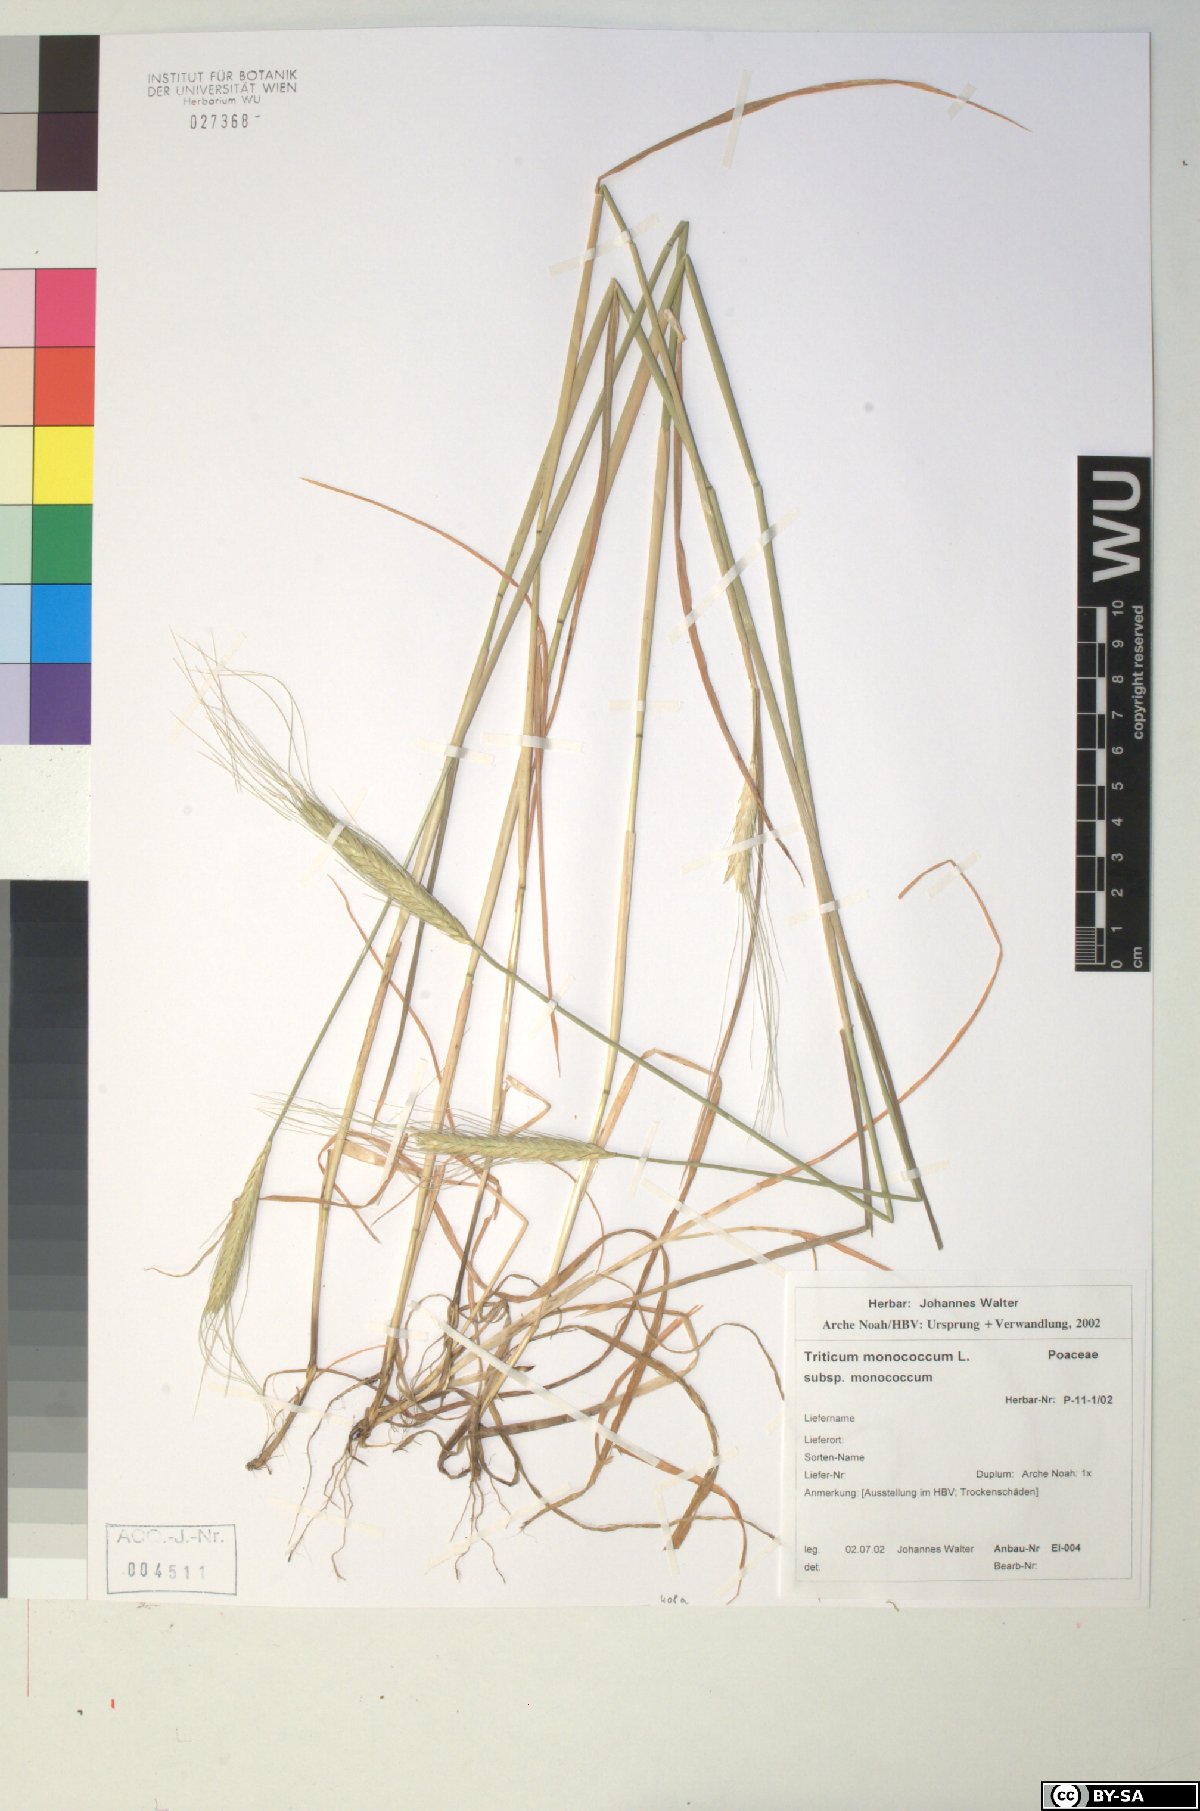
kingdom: Plantae
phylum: Tracheophyta
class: Liliopsida
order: Poales
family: Poaceae
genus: Triticum
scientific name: Triticum monococcum
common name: Einkorn
